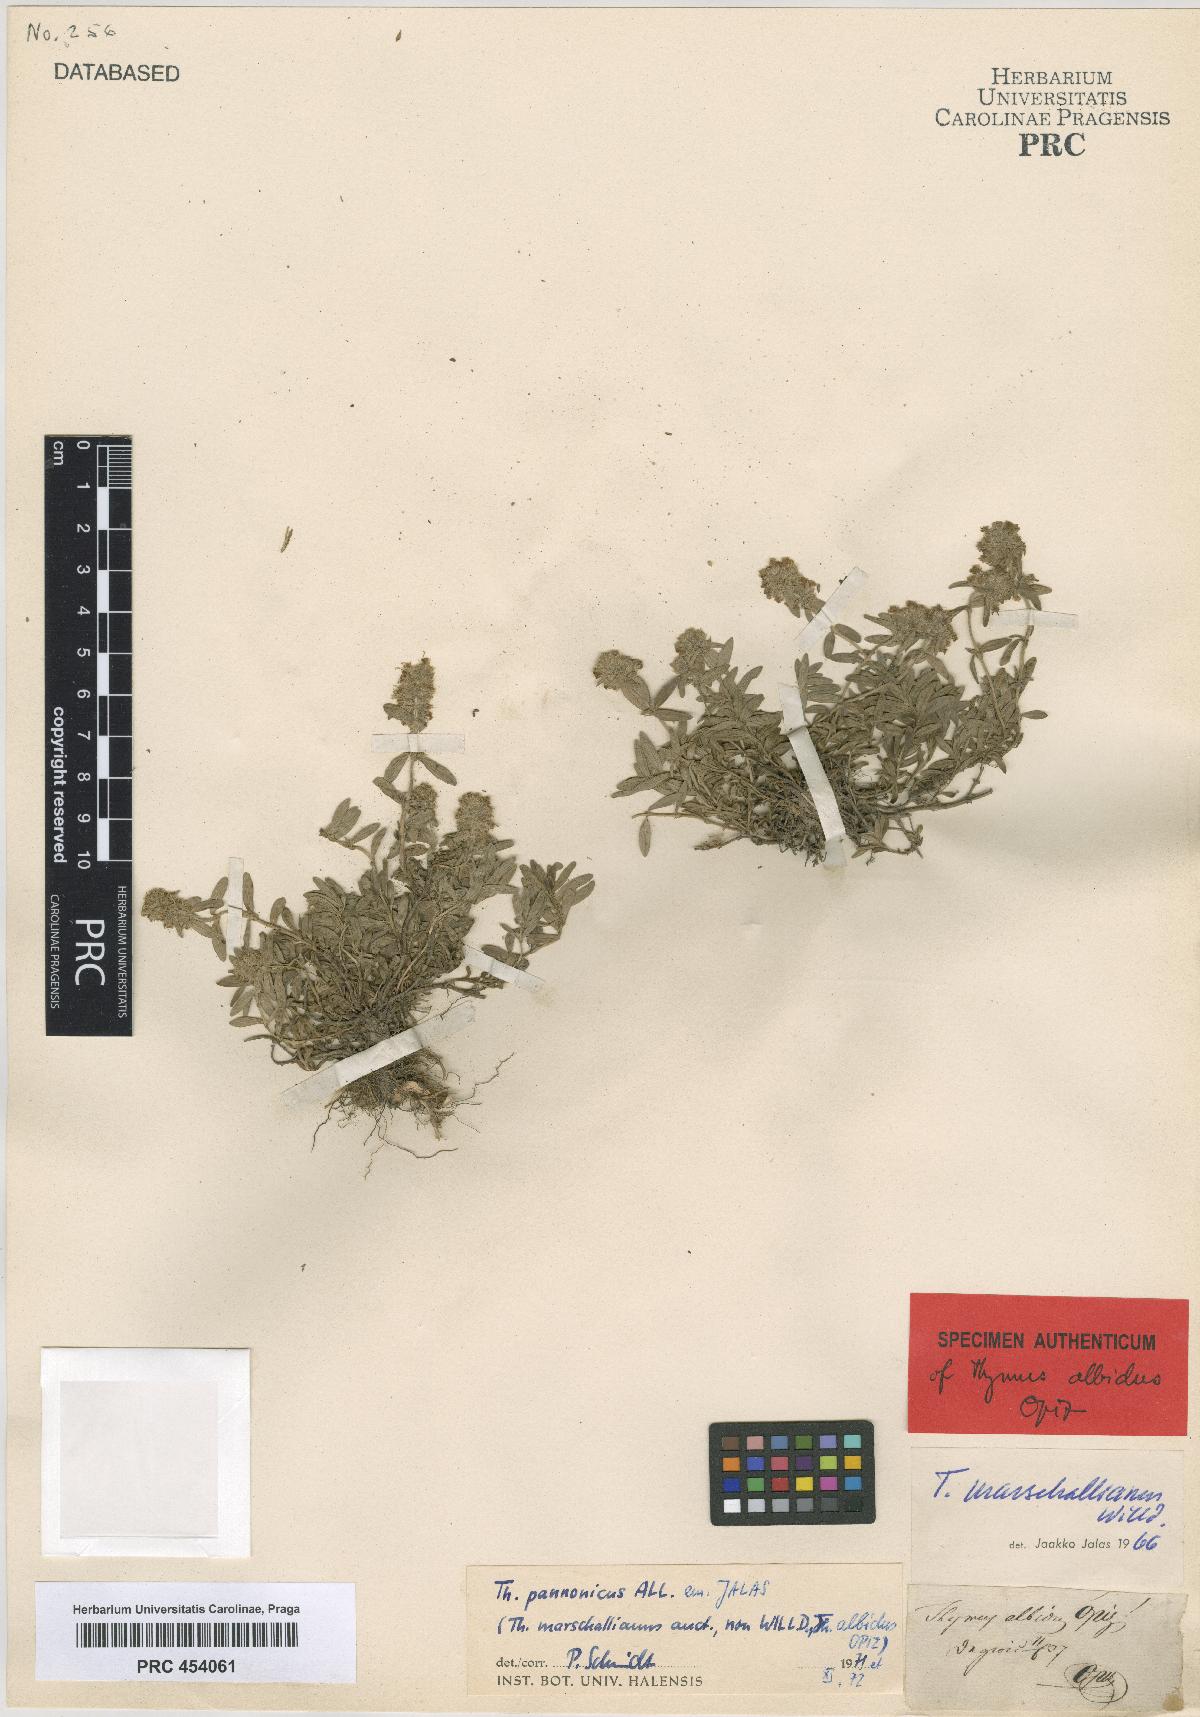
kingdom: Plantae
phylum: Tracheophyta
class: Magnoliopsida
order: Lamiales
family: Lamiaceae
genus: Thymus
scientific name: Thymus pannonicus
